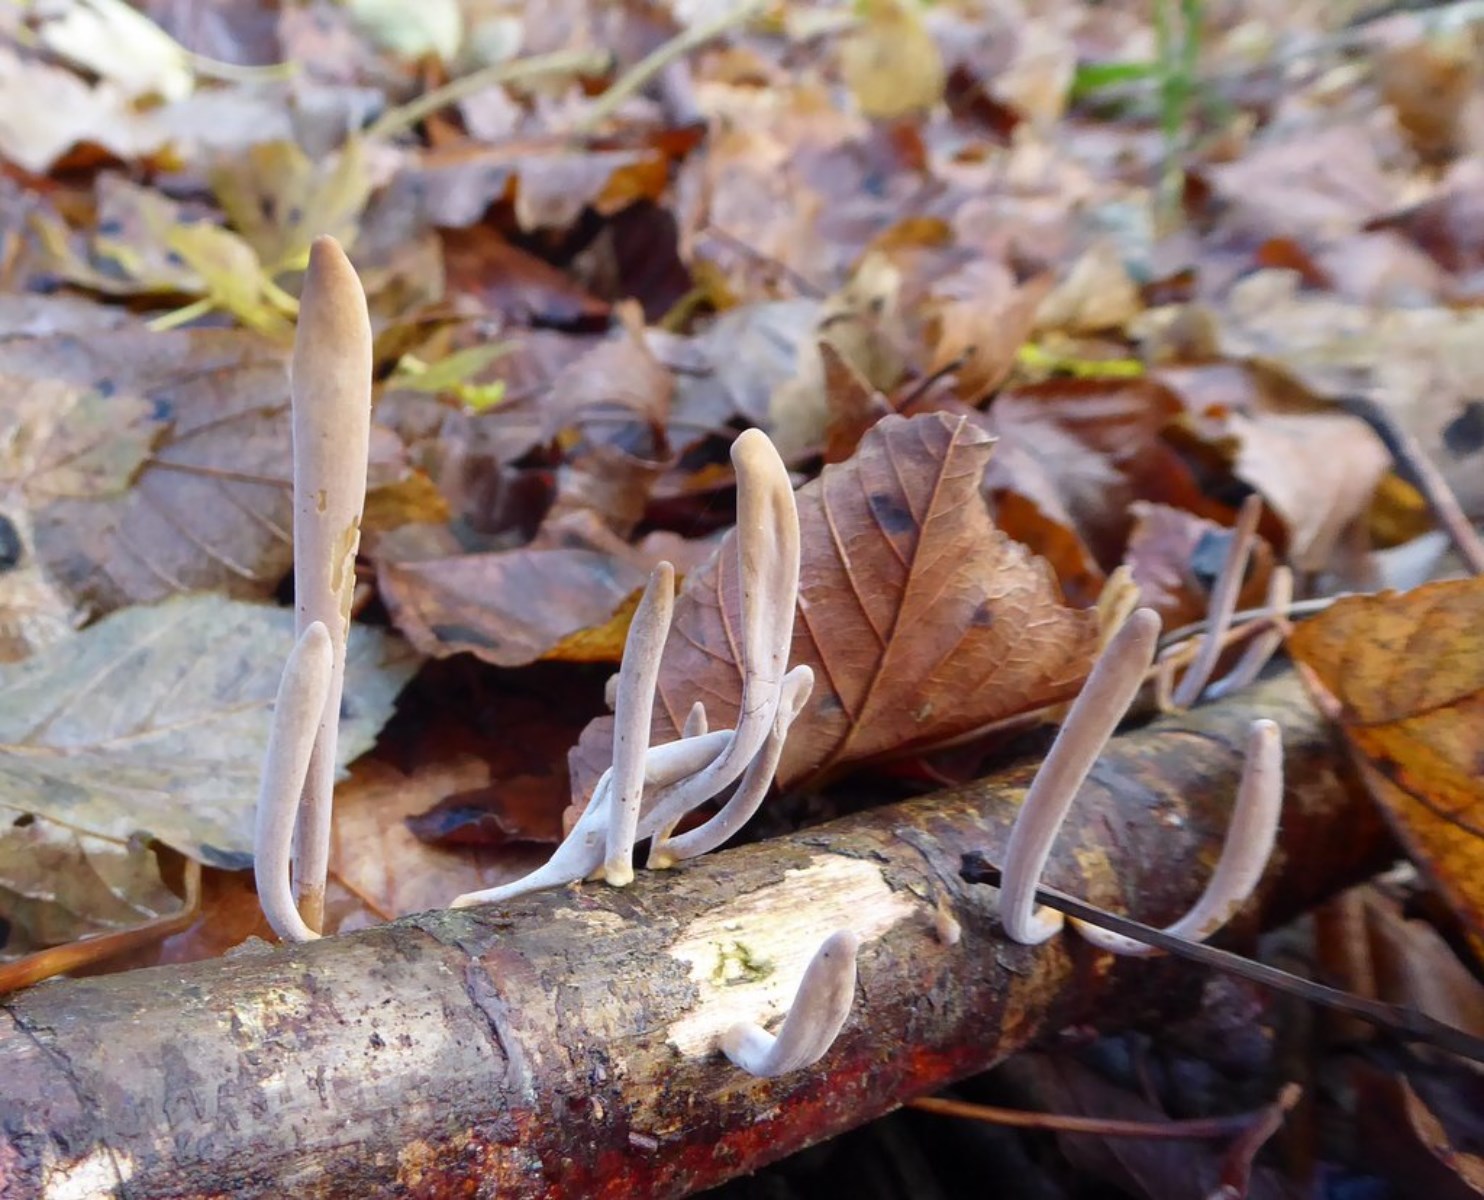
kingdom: Fungi
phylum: Basidiomycota
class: Agaricomycetes
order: Agaricales
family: Typhulaceae
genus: Typhula
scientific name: Typhula fistulosa
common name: pibet rørkølle
